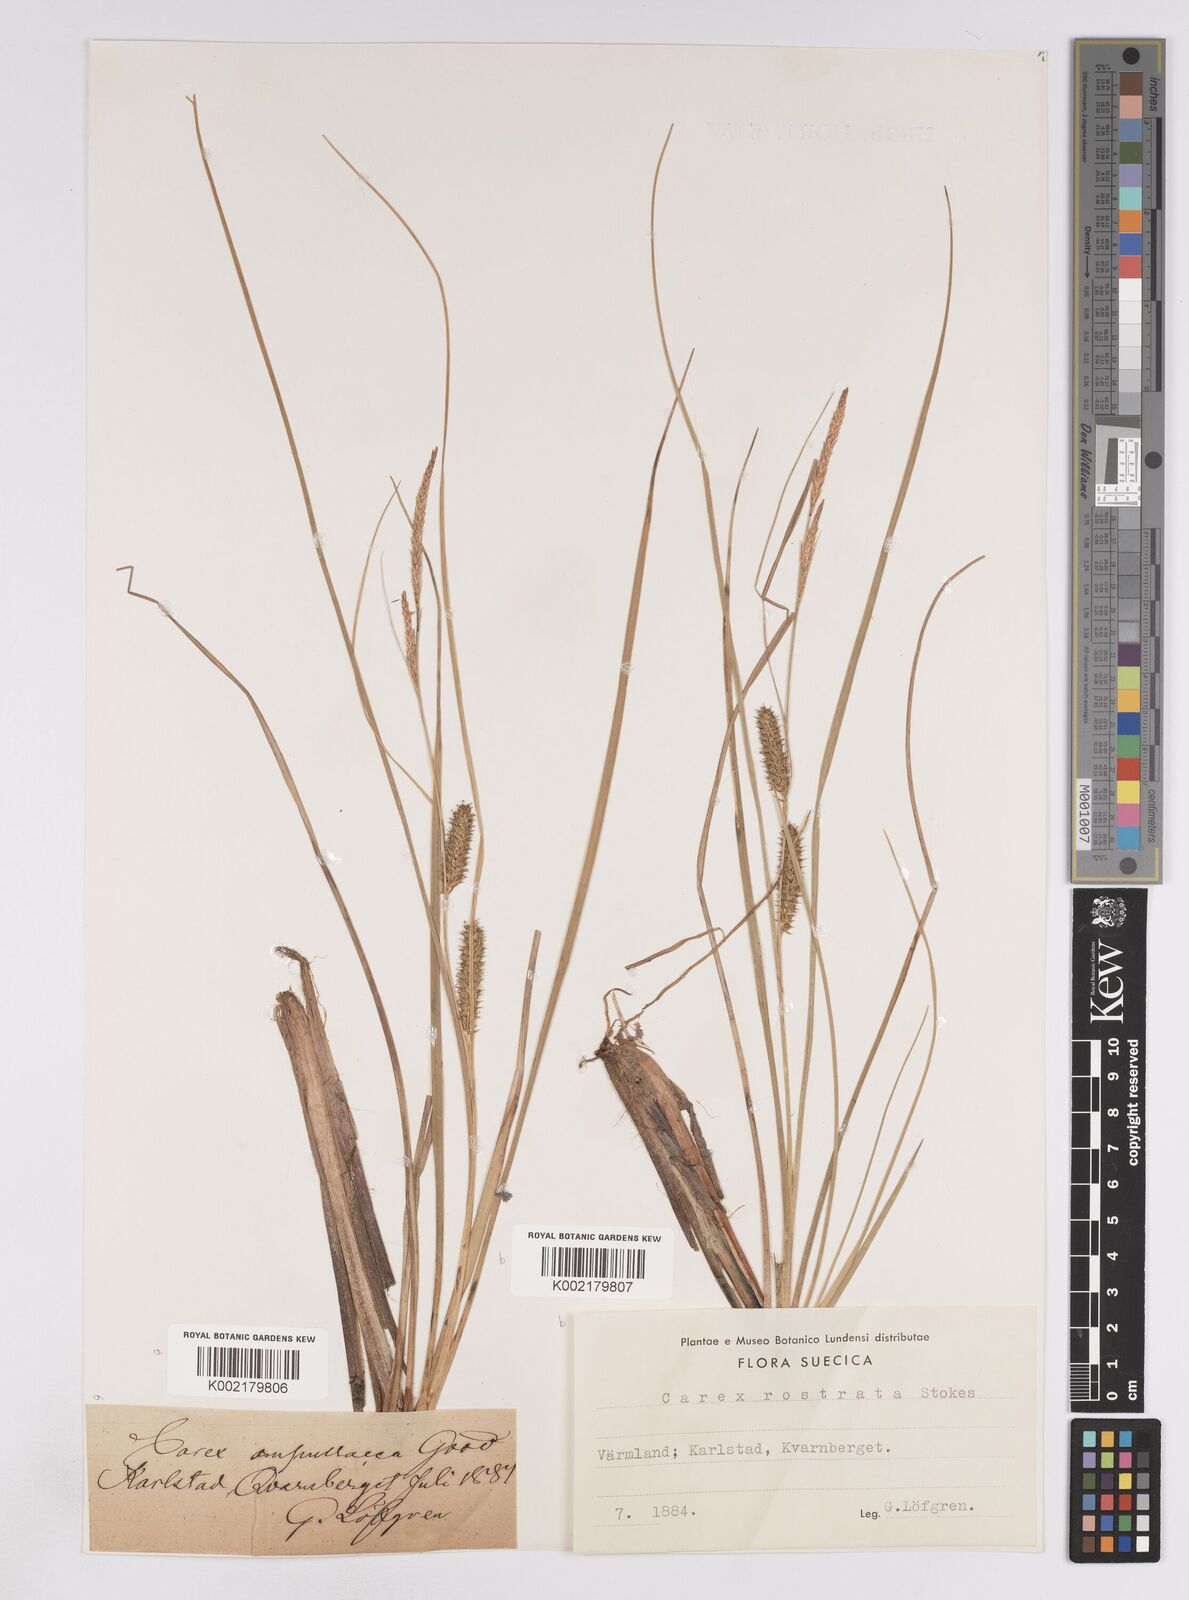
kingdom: Plantae
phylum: Tracheophyta
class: Liliopsida
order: Poales
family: Cyperaceae
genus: Carex
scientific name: Carex rostrata
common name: Bottle sedge
